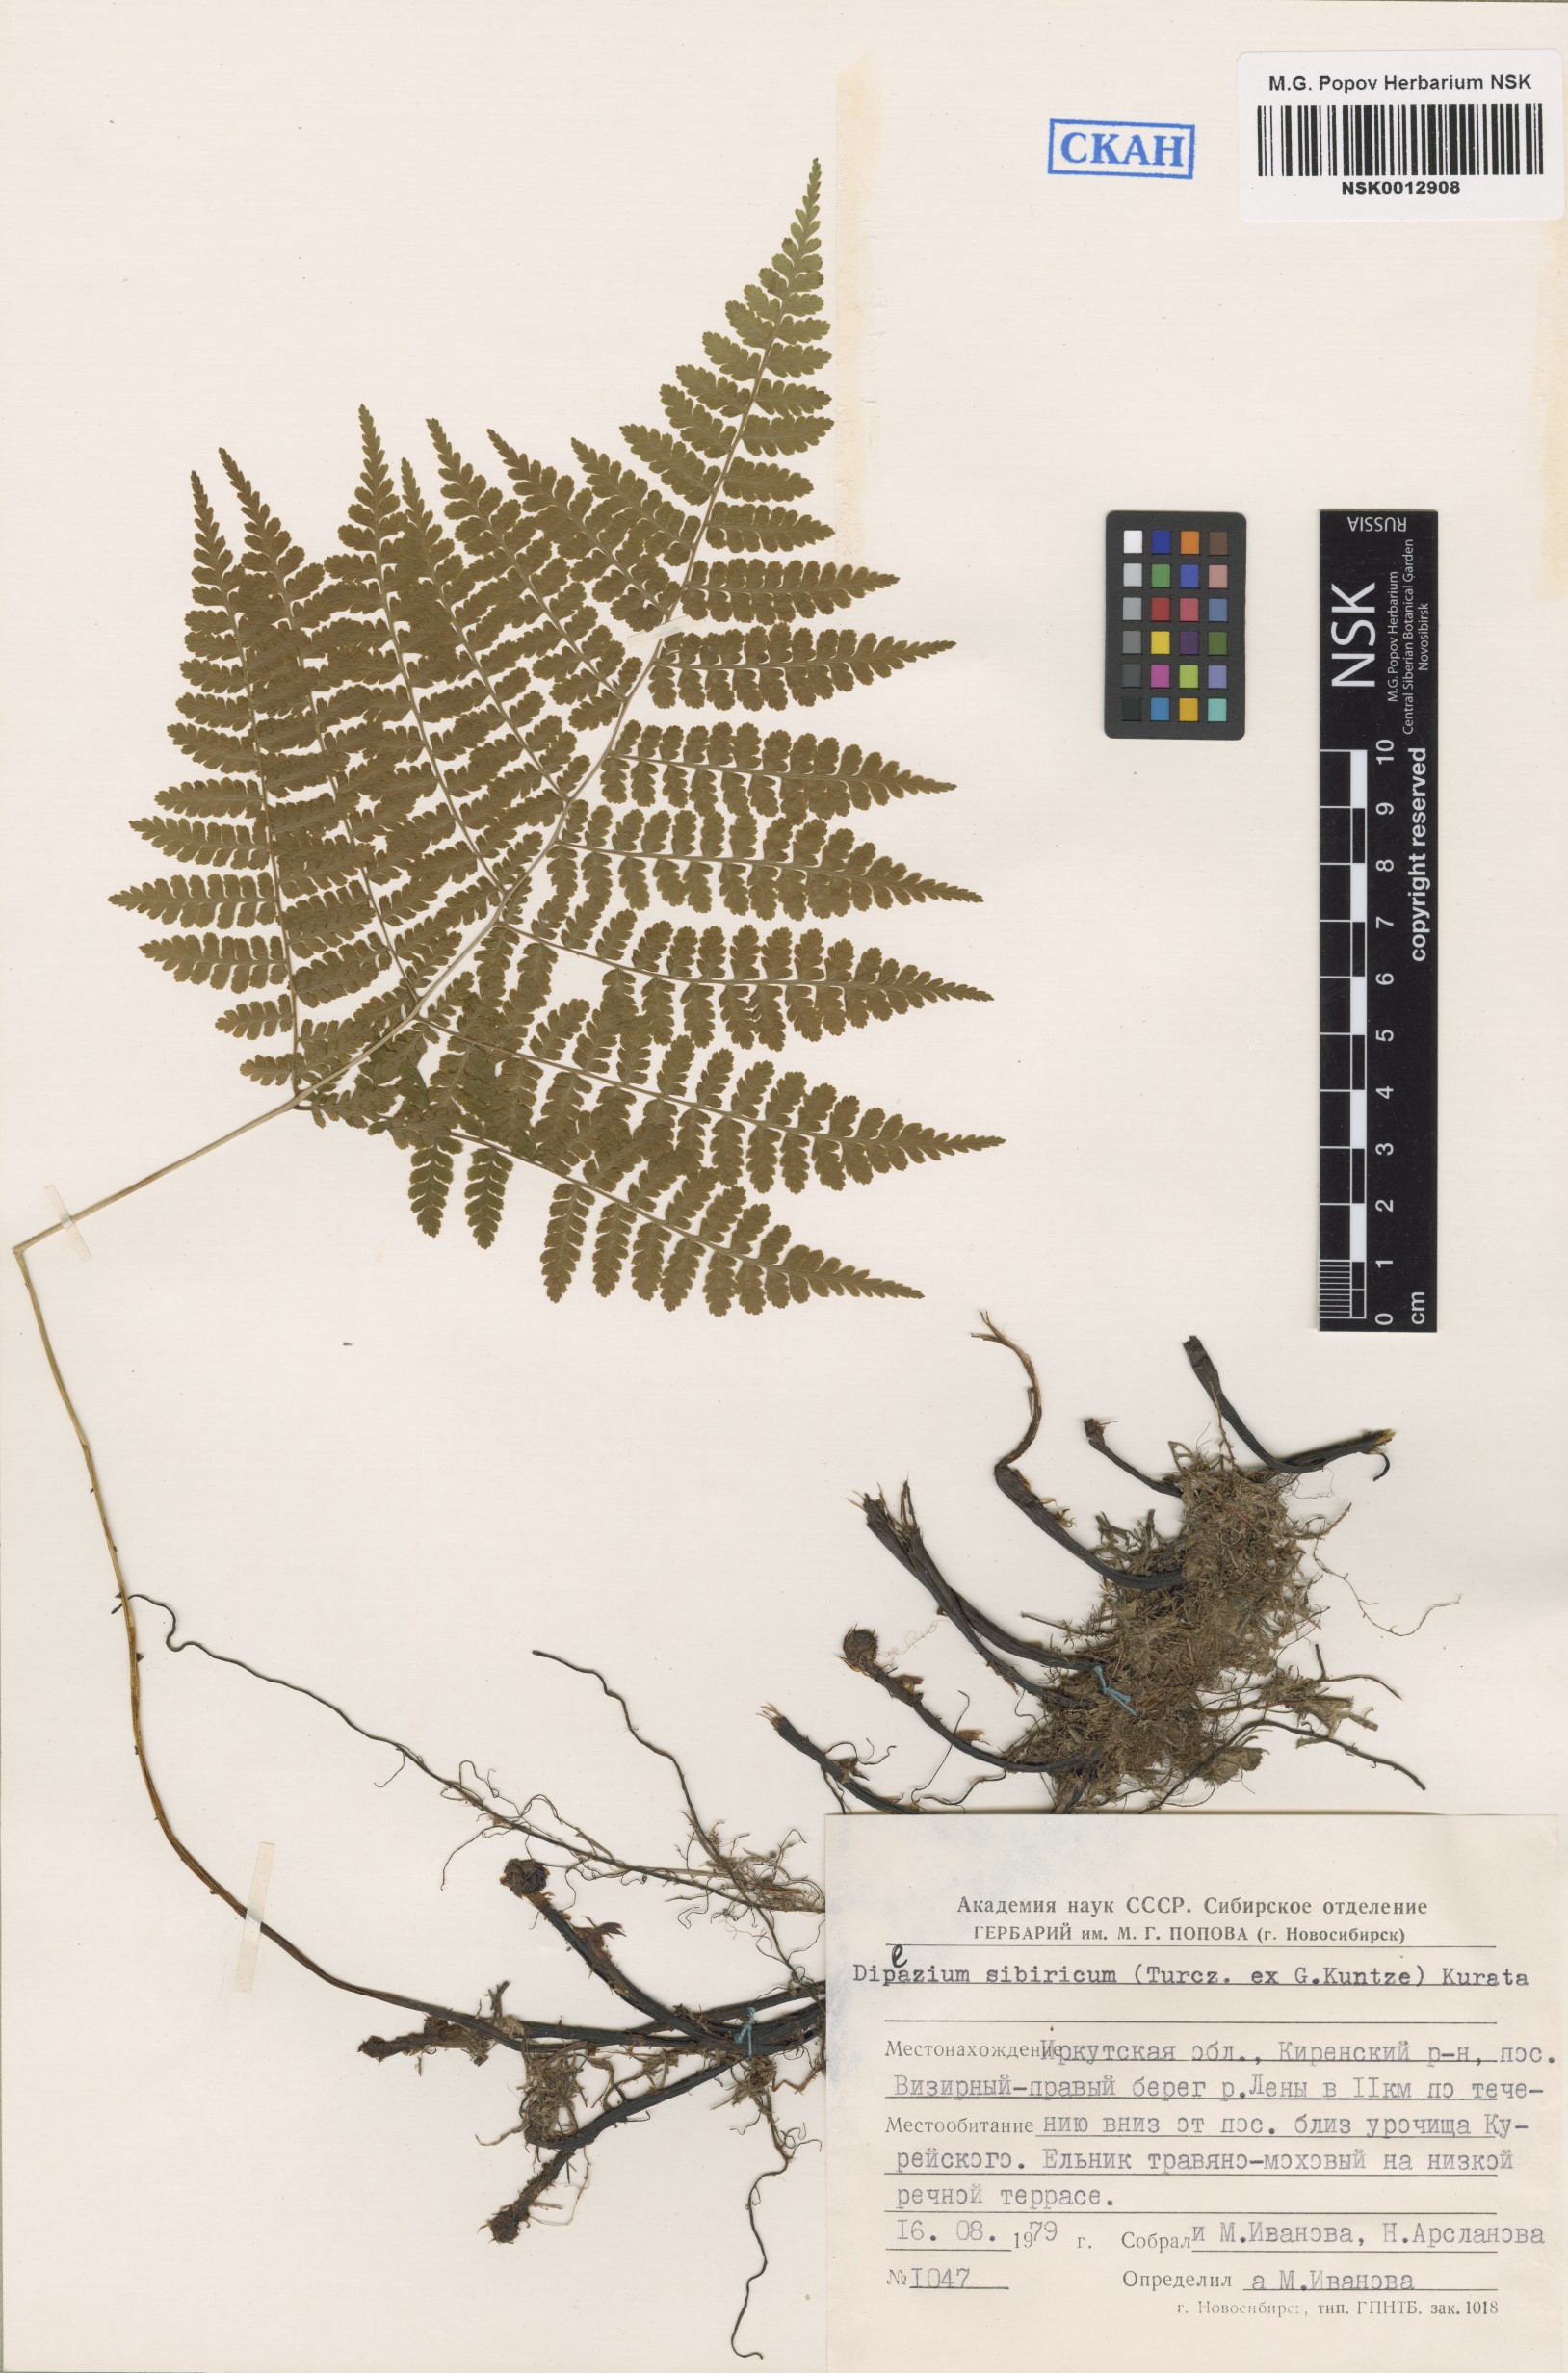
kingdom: Plantae
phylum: Tracheophyta
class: Polypodiopsida
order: Polypodiales
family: Athyriaceae
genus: Diplazium
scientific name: Diplazium sibiricum
